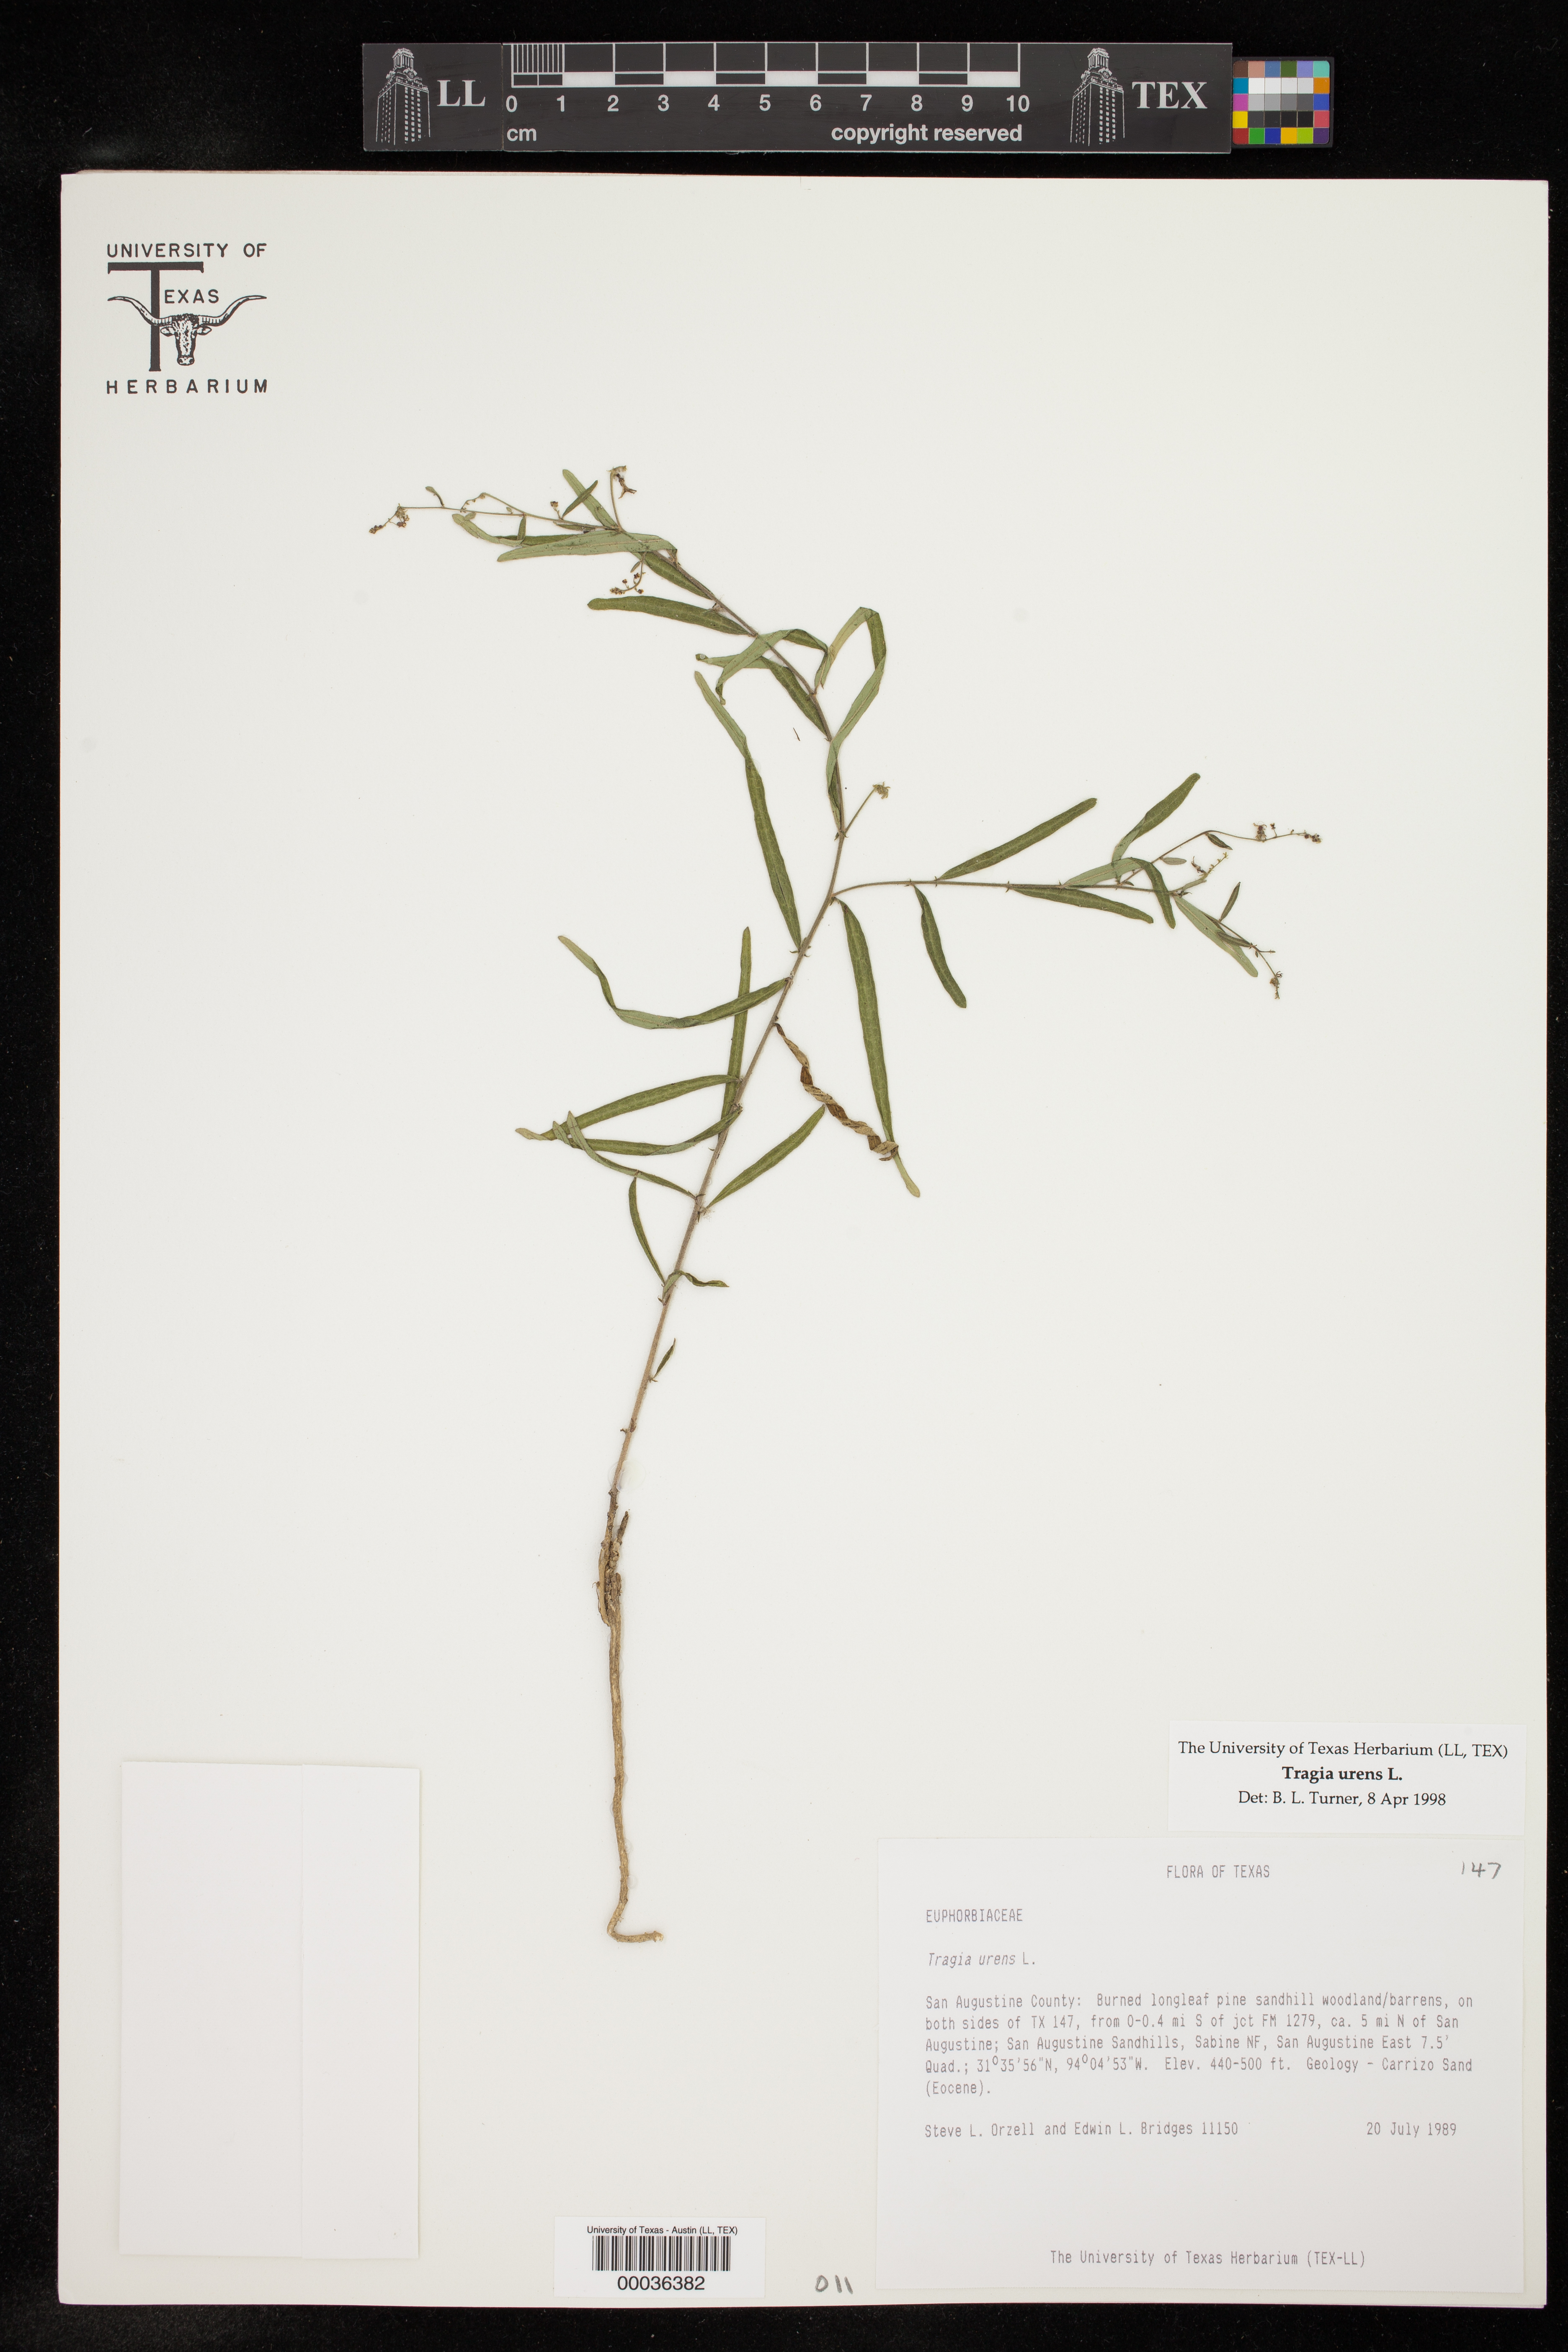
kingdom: Plantae
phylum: Tracheophyta
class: Magnoliopsida
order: Malpighiales
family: Euphorbiaceae
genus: Tragia
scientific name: Tragia urens
